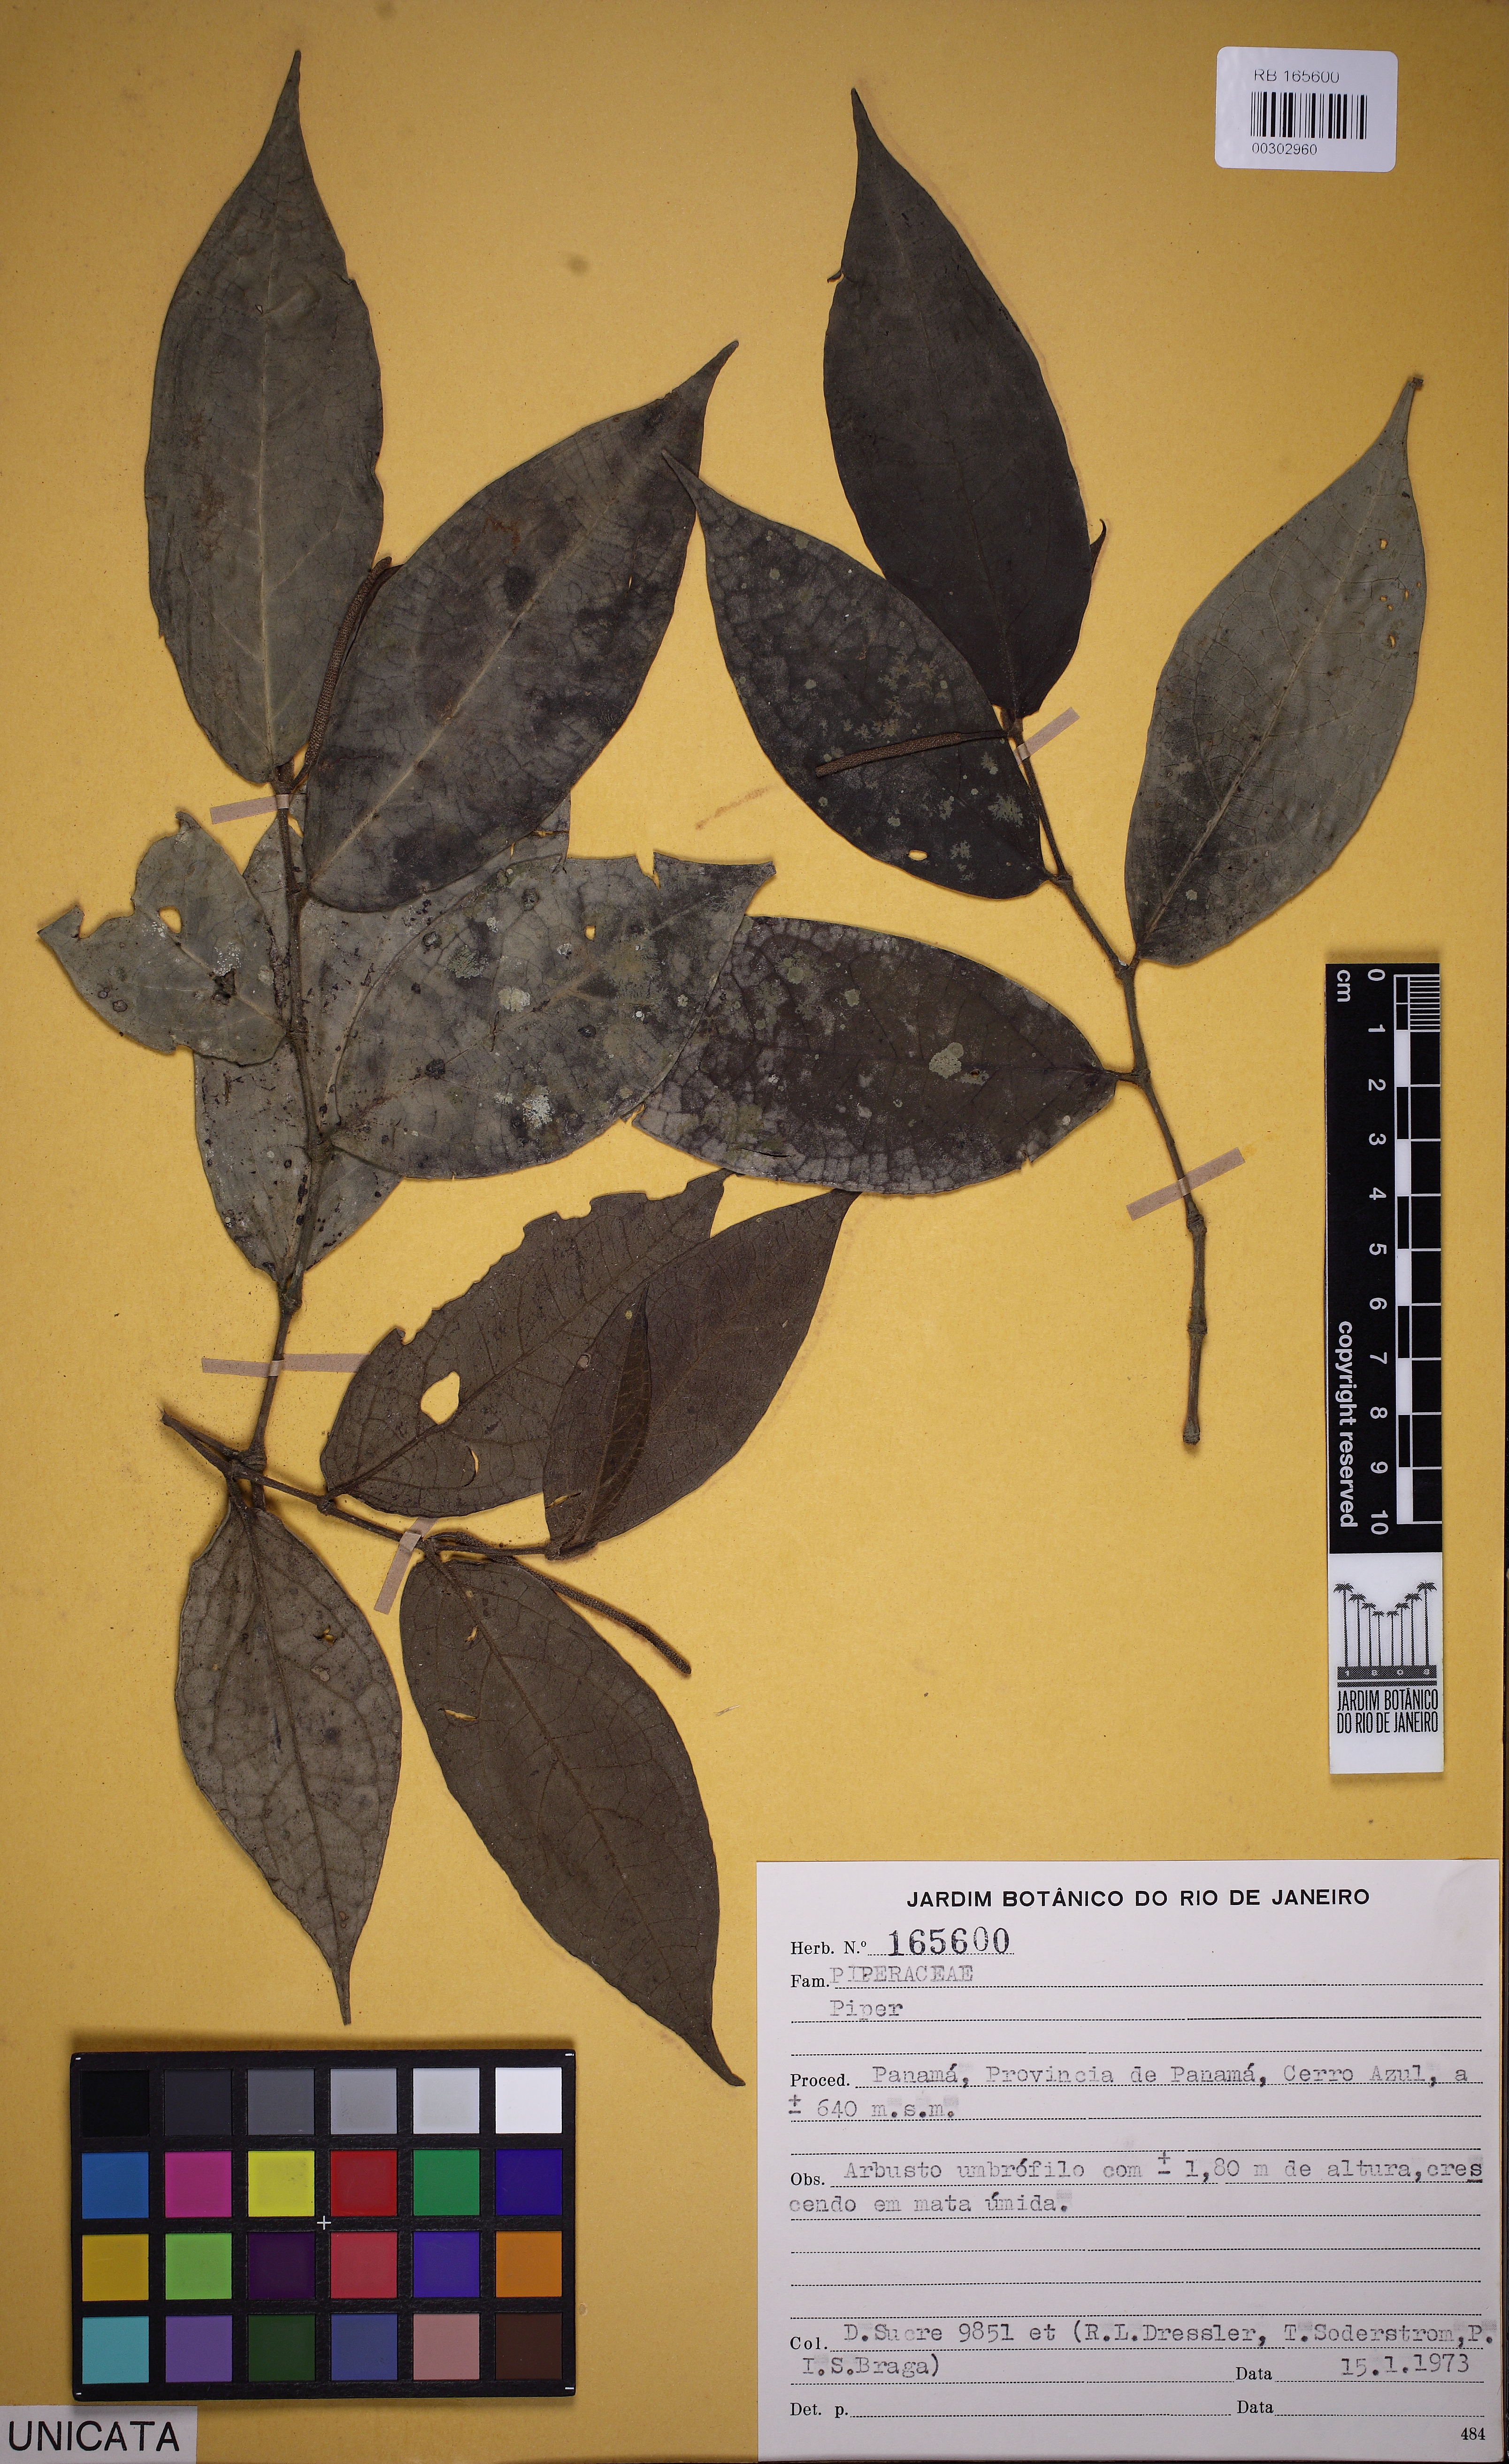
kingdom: Plantae
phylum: Tracheophyta
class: Magnoliopsida
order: Piperales
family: Piperaceae
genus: Peperomia
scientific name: Peperomia
